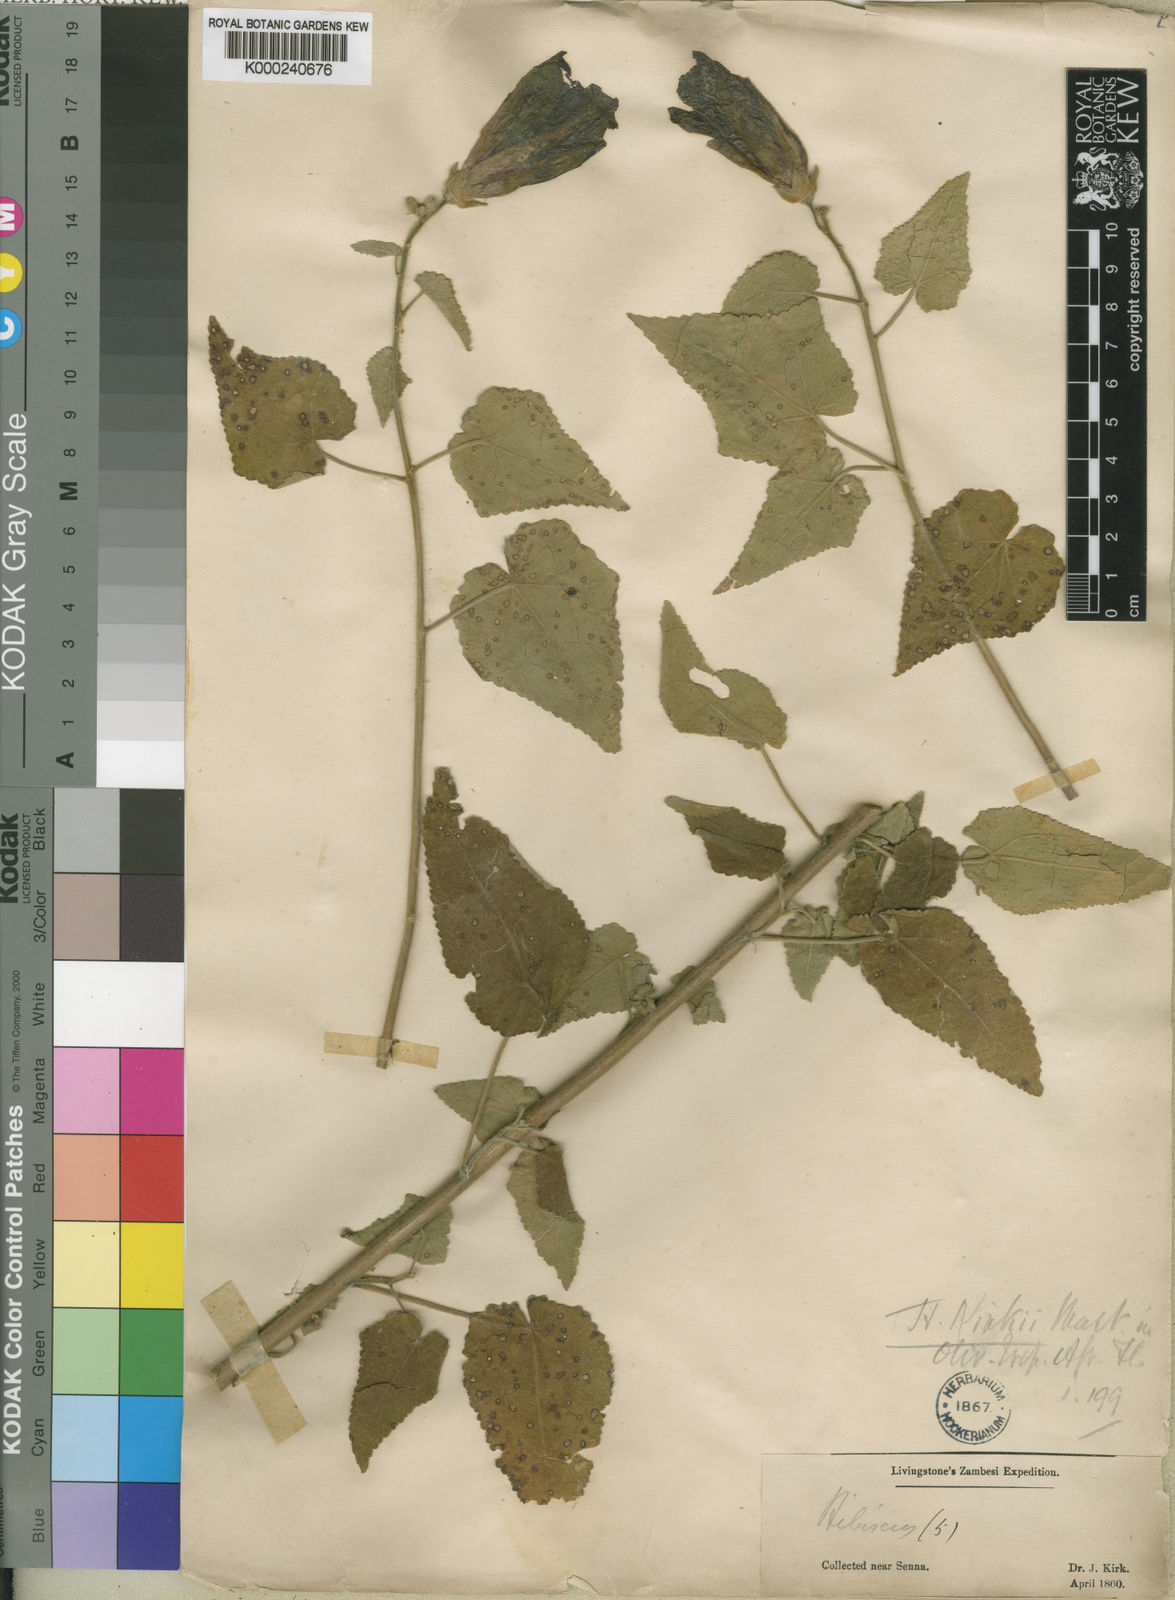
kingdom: Plantae
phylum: Tracheophyta
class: Magnoliopsida
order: Malvales
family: Malvaceae
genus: Hibiscus
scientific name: Hibiscus kirkii
